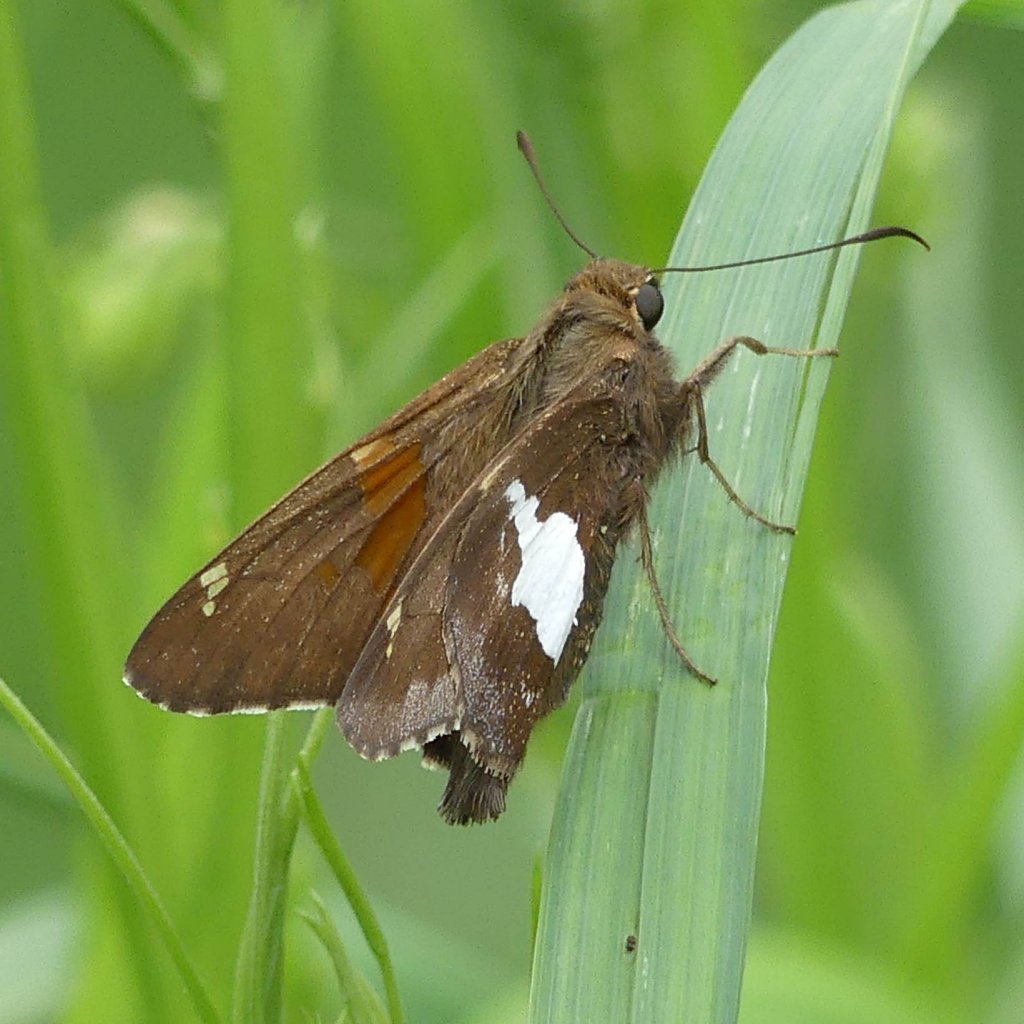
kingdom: Animalia
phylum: Arthropoda
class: Insecta
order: Lepidoptera
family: Hesperiidae
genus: Epargyreus
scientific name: Epargyreus clarus
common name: Silver-spotted Skipper
